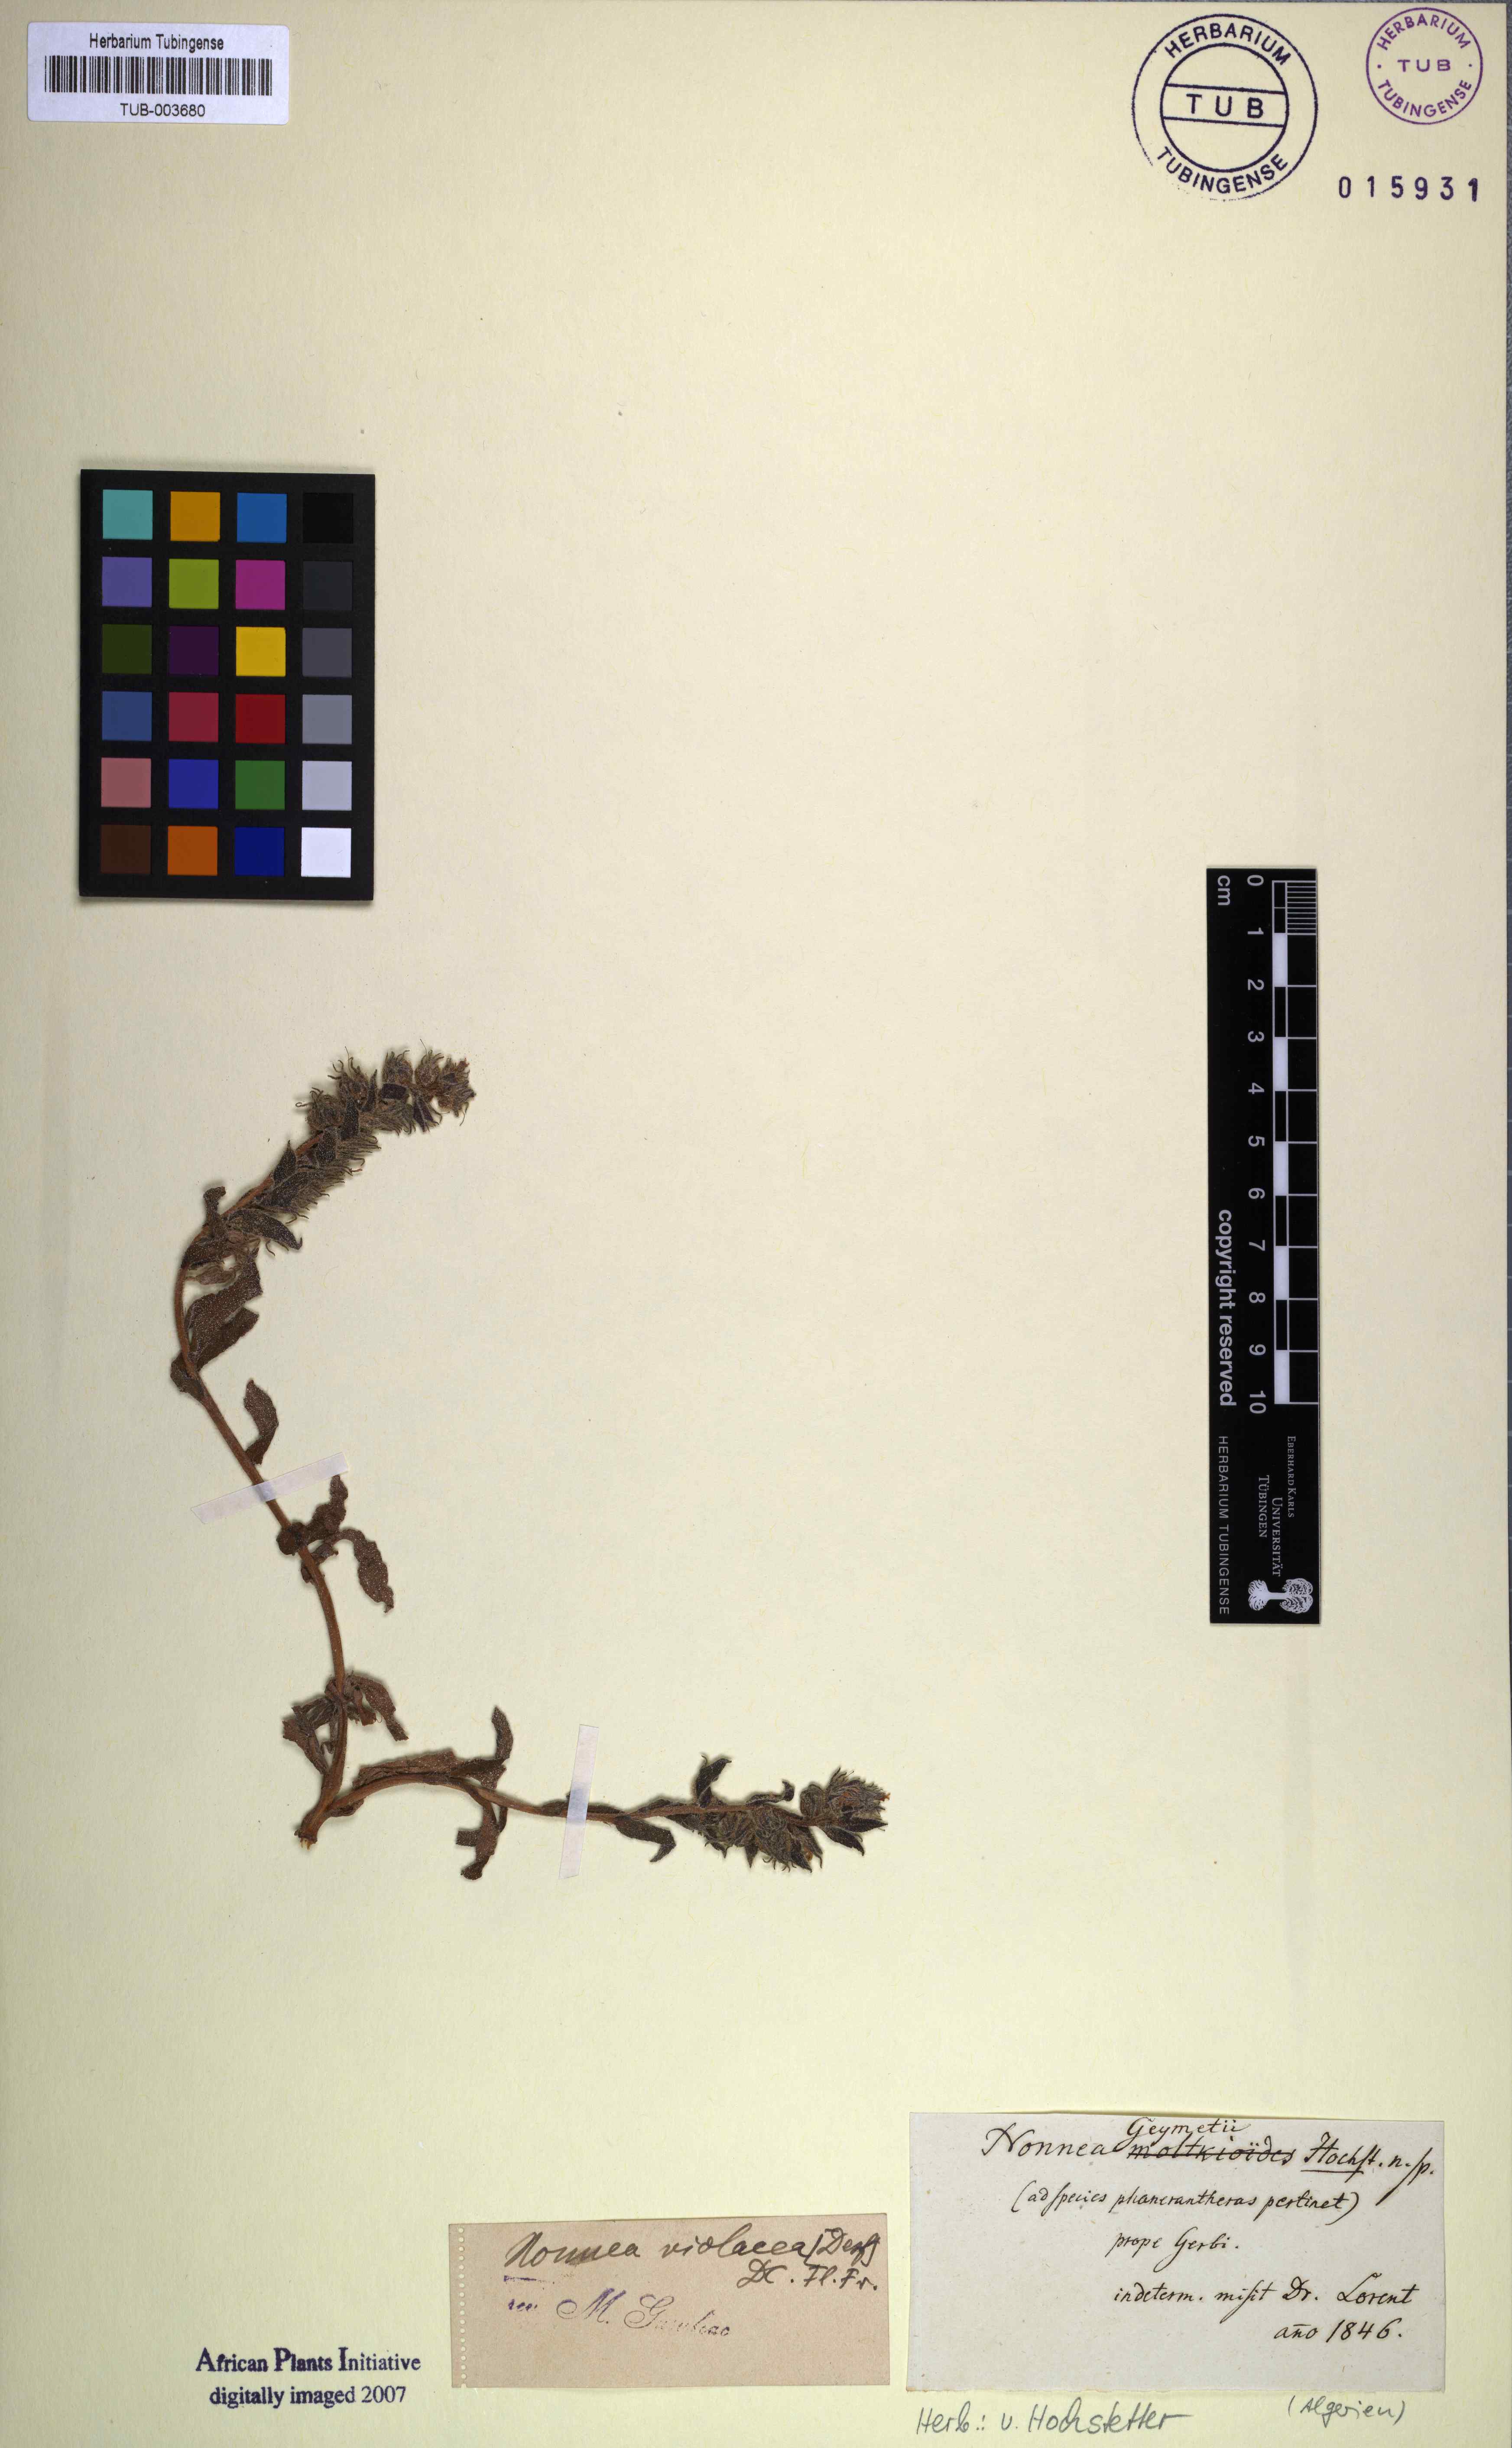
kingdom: Plantae
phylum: Tracheophyta
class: Magnoliopsida
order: Boraginales
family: Boraginaceae
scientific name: Boraginaceae
